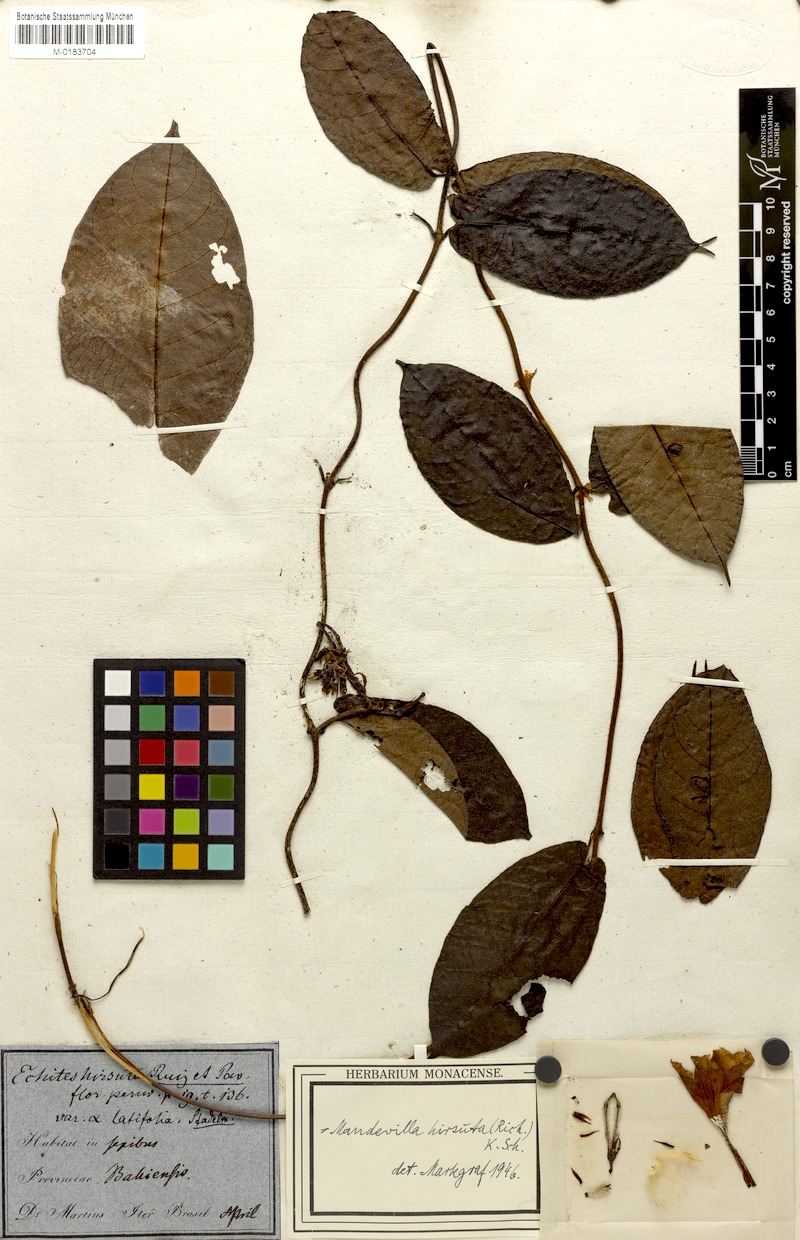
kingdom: Plantae
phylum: Tracheophyta
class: Magnoliopsida
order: Gentianales
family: Apocynaceae
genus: Mandevilla
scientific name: Mandevilla hirsuta
